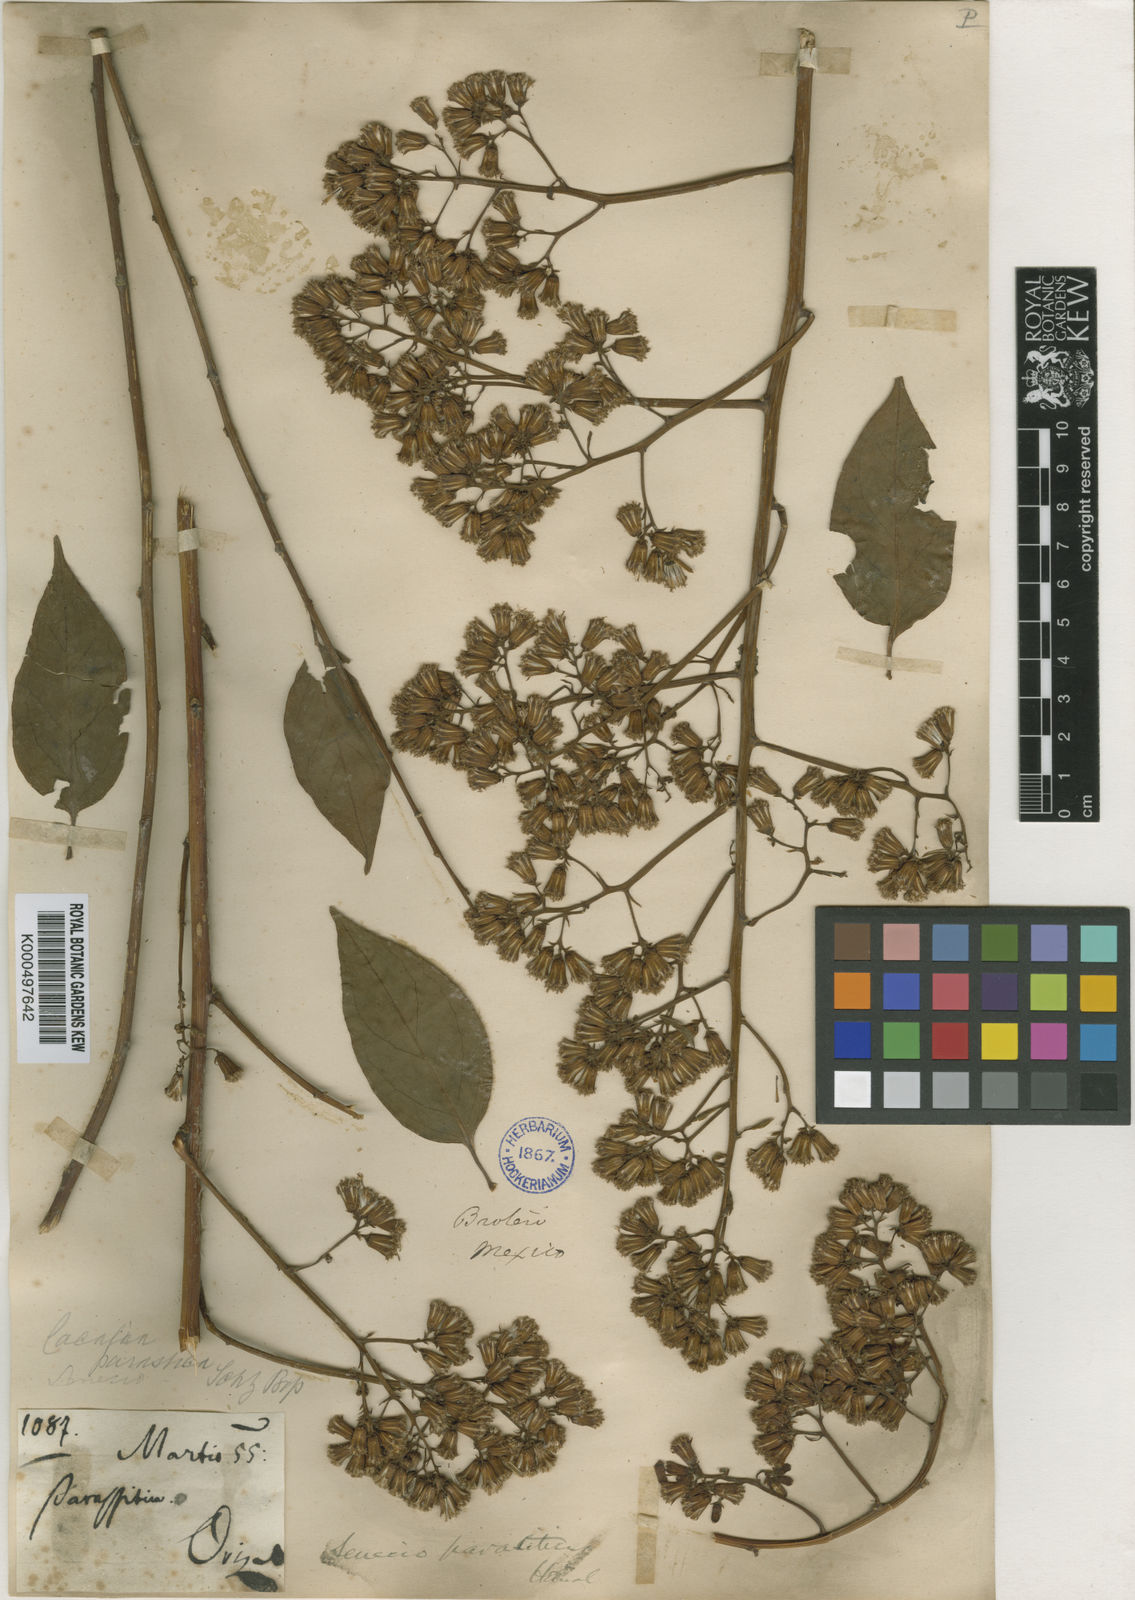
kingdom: Plantae
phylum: Tracheophyta
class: Magnoliopsida
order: Asterales
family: Asteraceae
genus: Pentacalia
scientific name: Pentacalia parasitica
